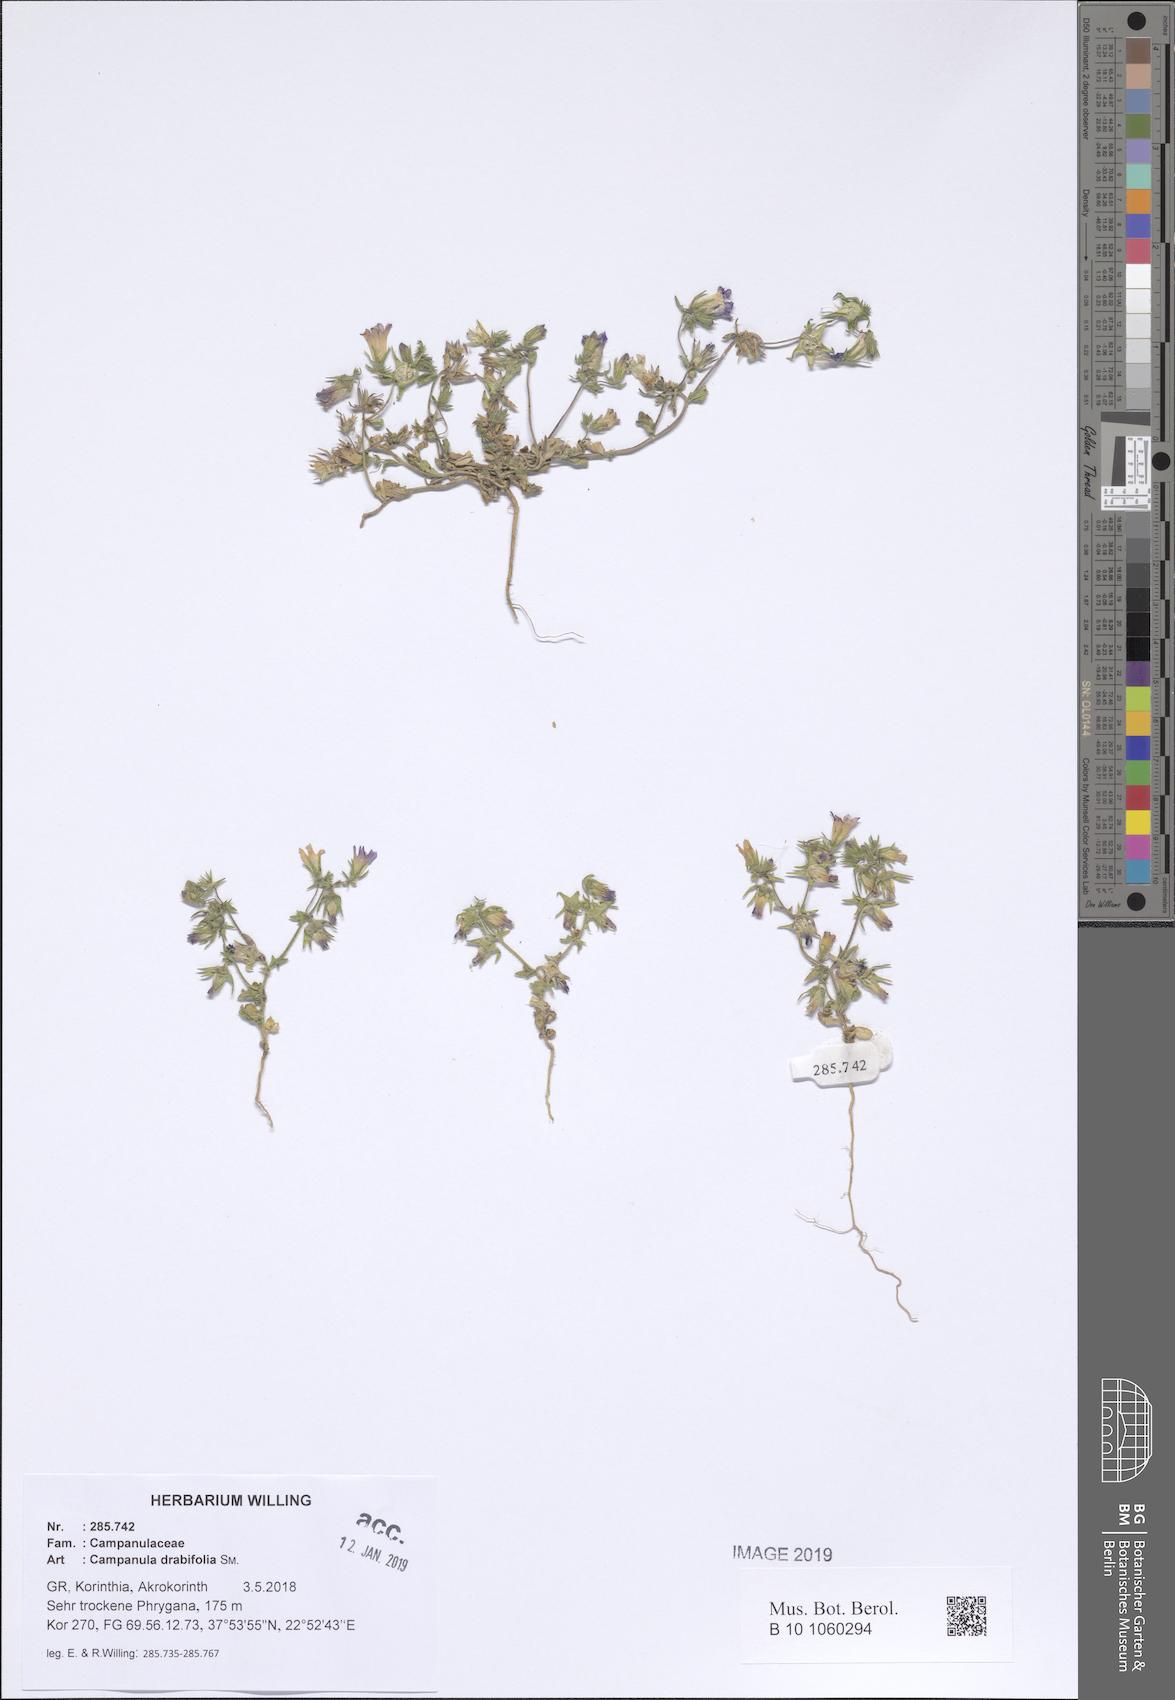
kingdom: Plantae
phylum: Tracheophyta
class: Magnoliopsida
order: Asterales
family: Campanulaceae
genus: Campanula
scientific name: Campanula drabifolia
